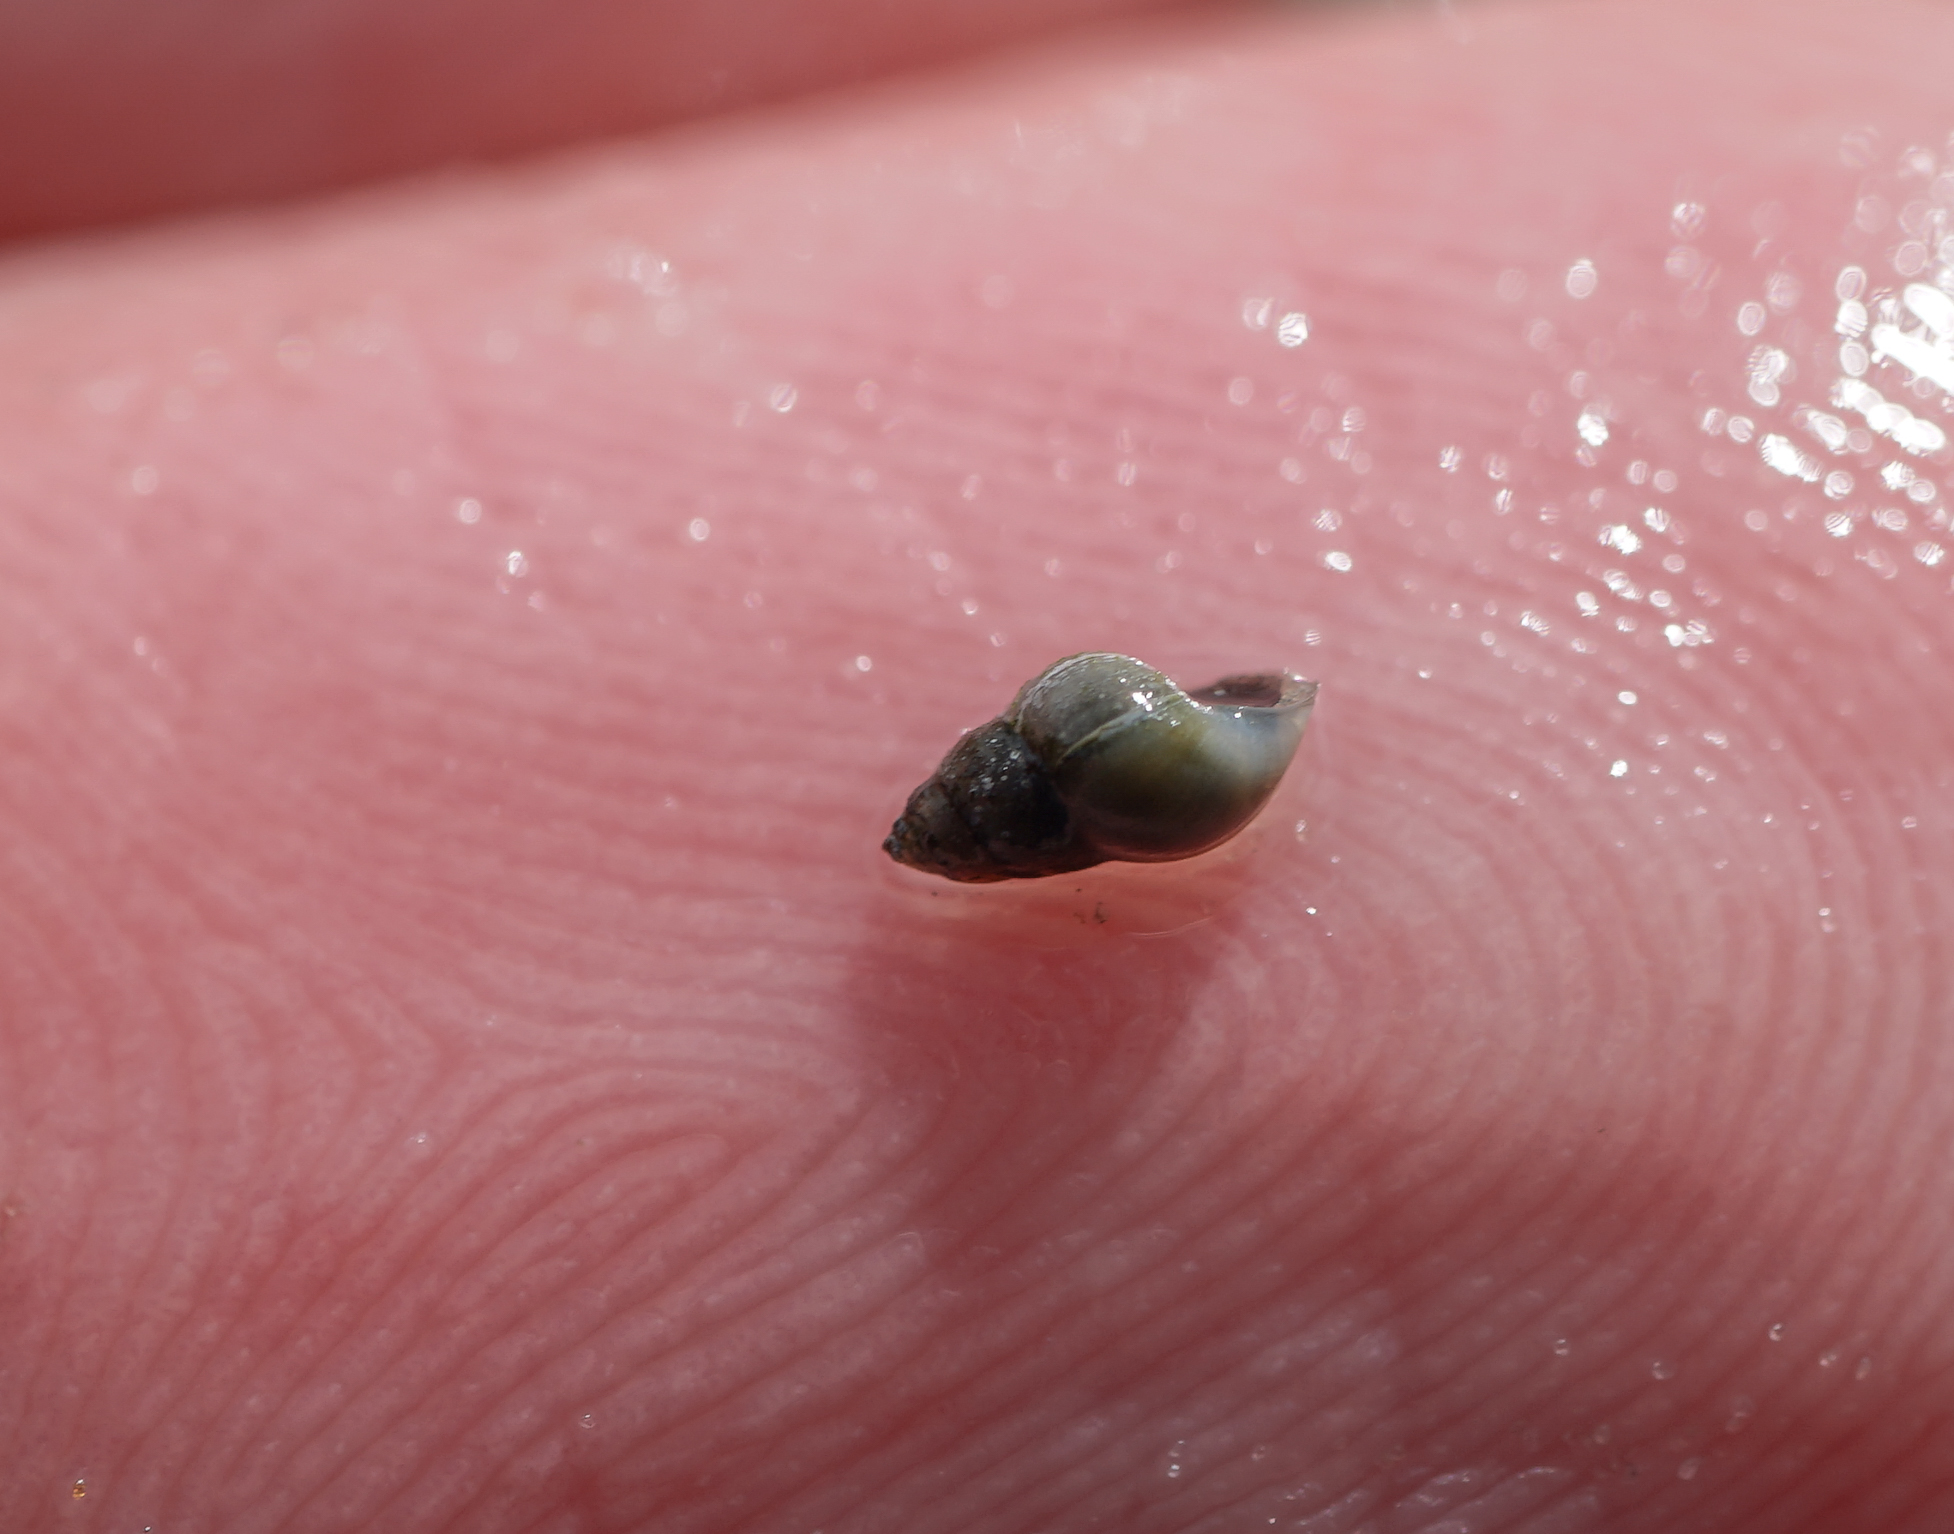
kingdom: Animalia
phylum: Mollusca
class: Gastropoda
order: Littorinimorpha
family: Hydrobiidae
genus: Peringia
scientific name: Peringia ulvae
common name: Laver spire shell
